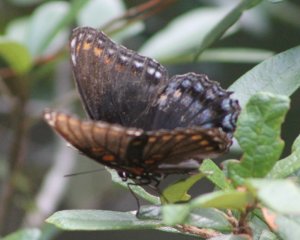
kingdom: Animalia
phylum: Arthropoda
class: Insecta
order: Lepidoptera
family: Nymphalidae
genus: Limenitis
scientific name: Limenitis astyanax
